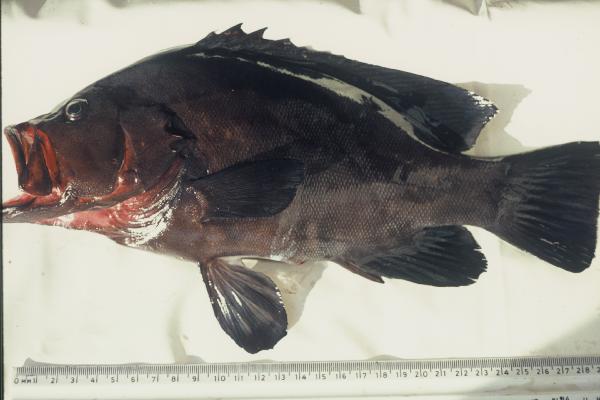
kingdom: Animalia
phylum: Chordata
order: Perciformes
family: Serranidae
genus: Aethaloperca
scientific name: Aethaloperca rogaa
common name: Redmouth grouper
